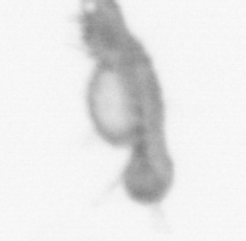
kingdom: Animalia
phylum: Annelida
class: Polychaeta
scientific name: Polychaeta
